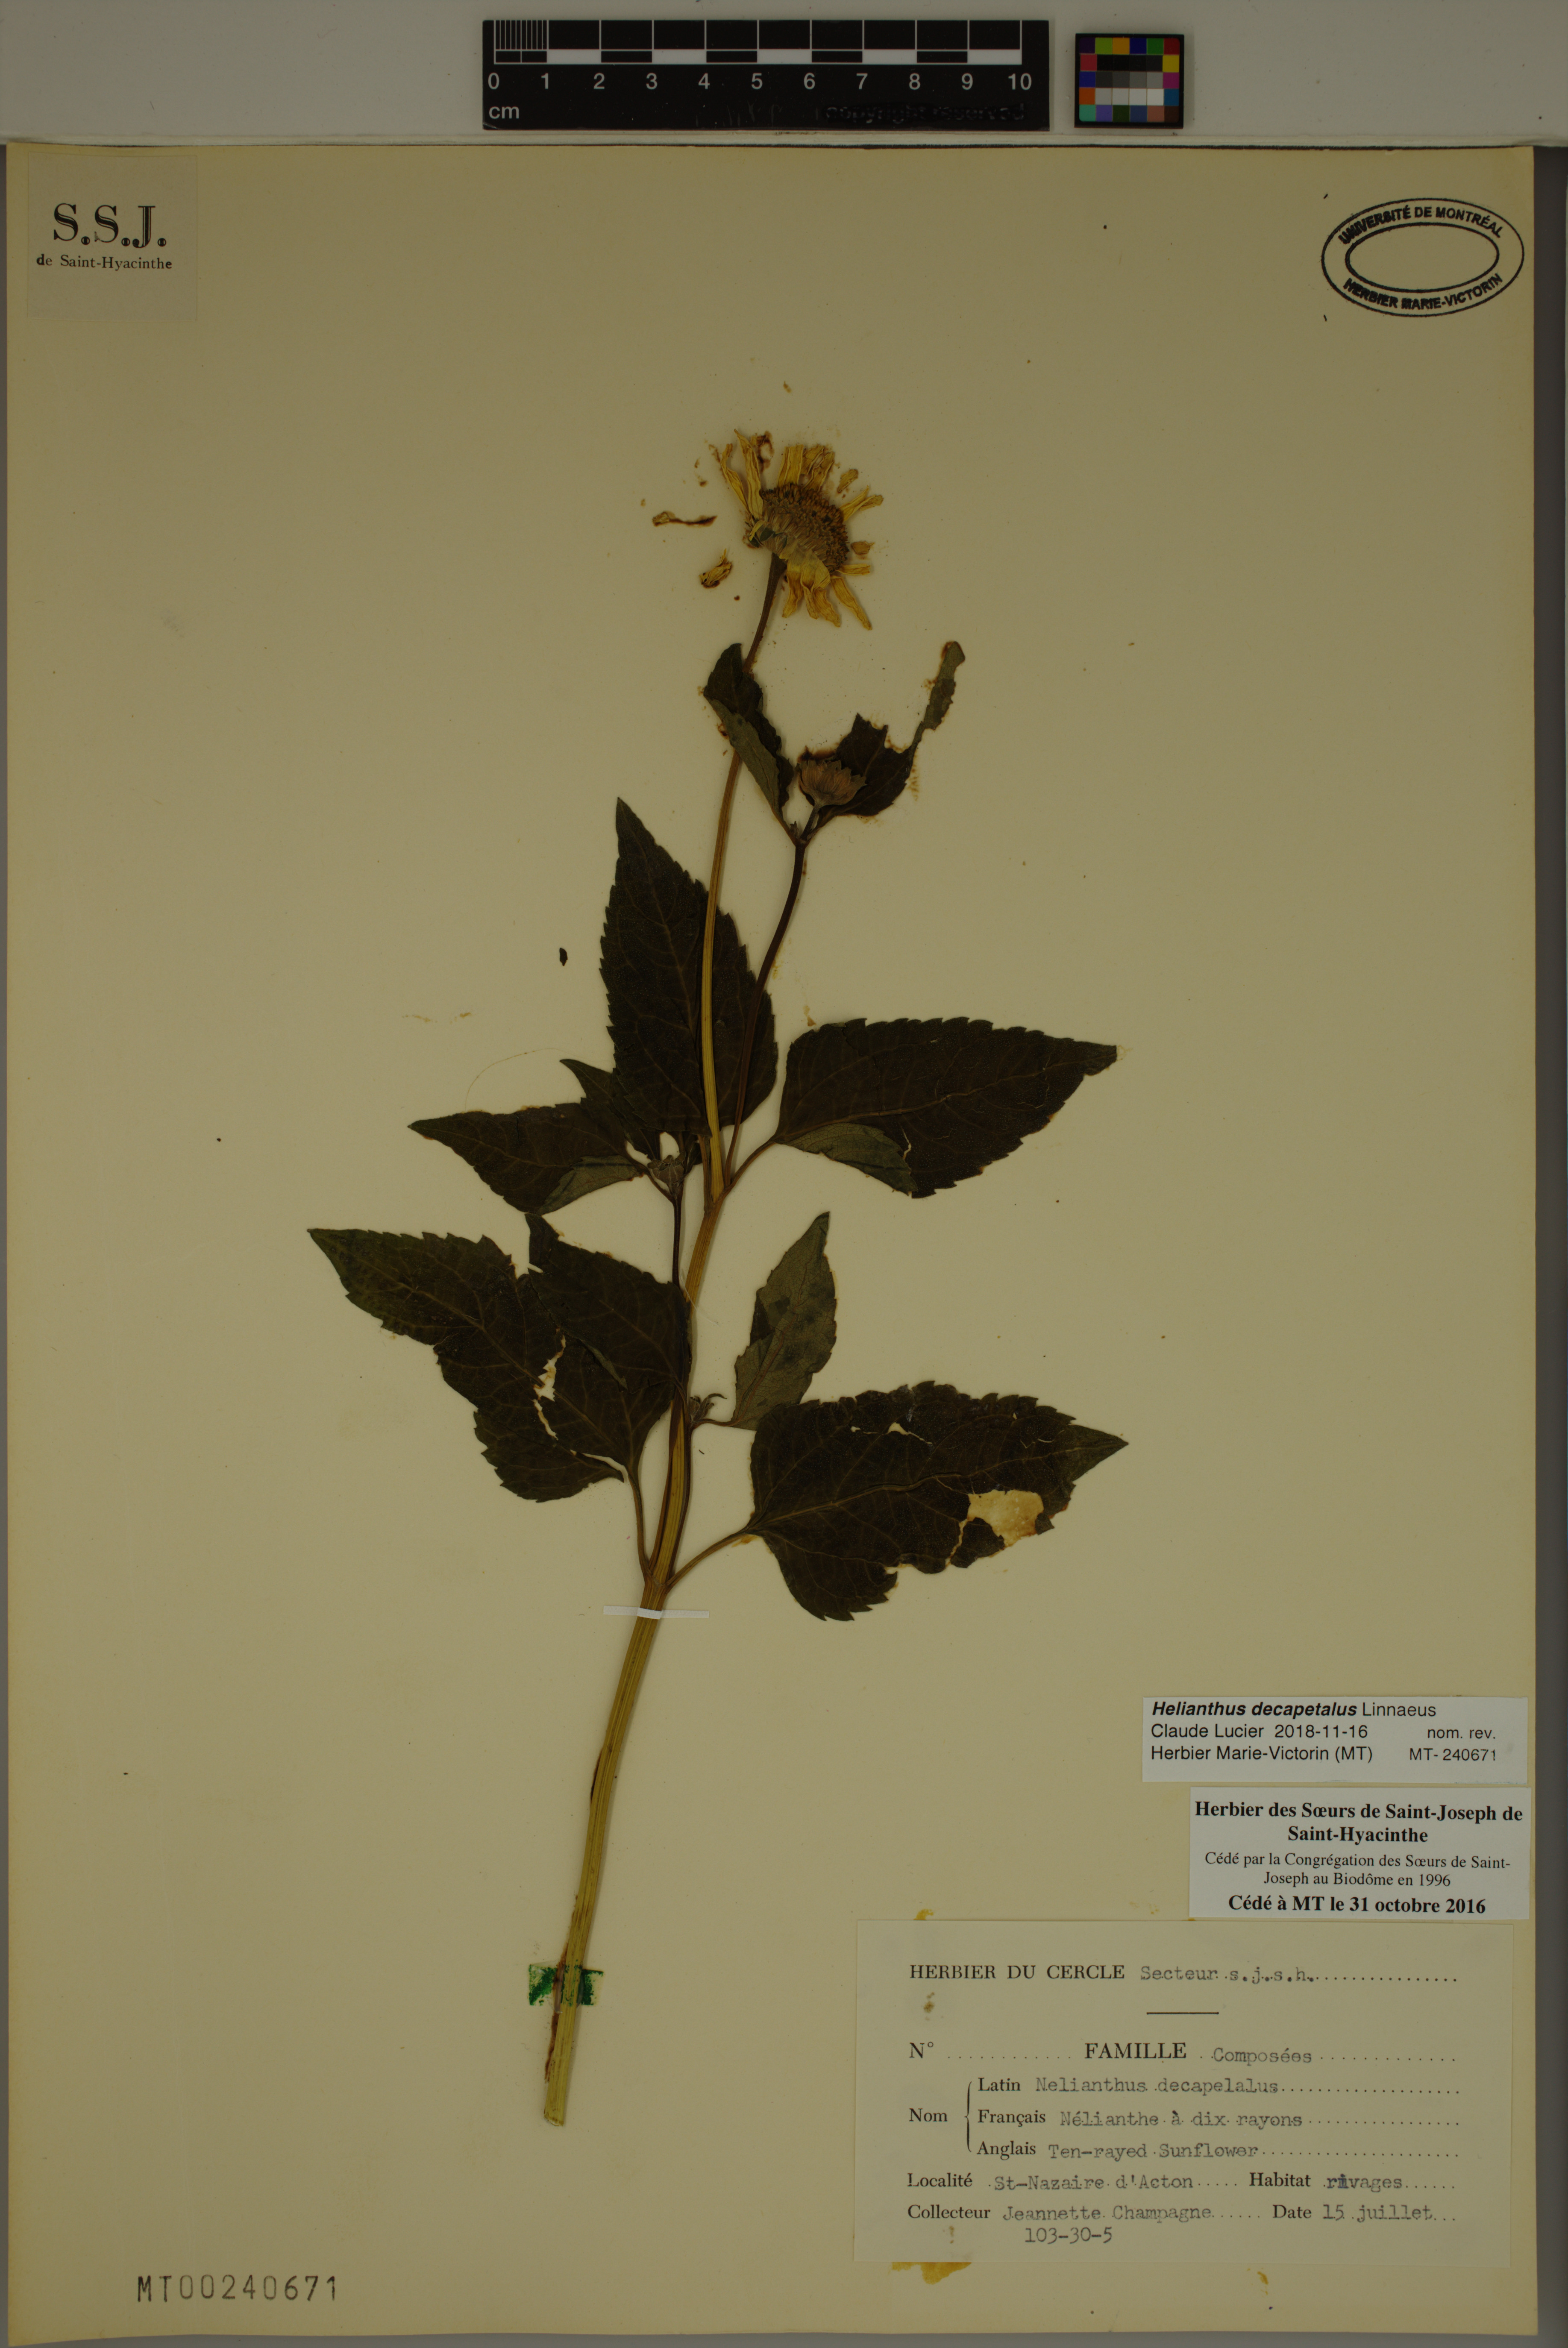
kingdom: Plantae
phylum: Tracheophyta
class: Magnoliopsida
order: Asterales
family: Asteraceae
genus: Helianthus
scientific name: Helianthus decapetalus
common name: Thin-leaved sunflower
